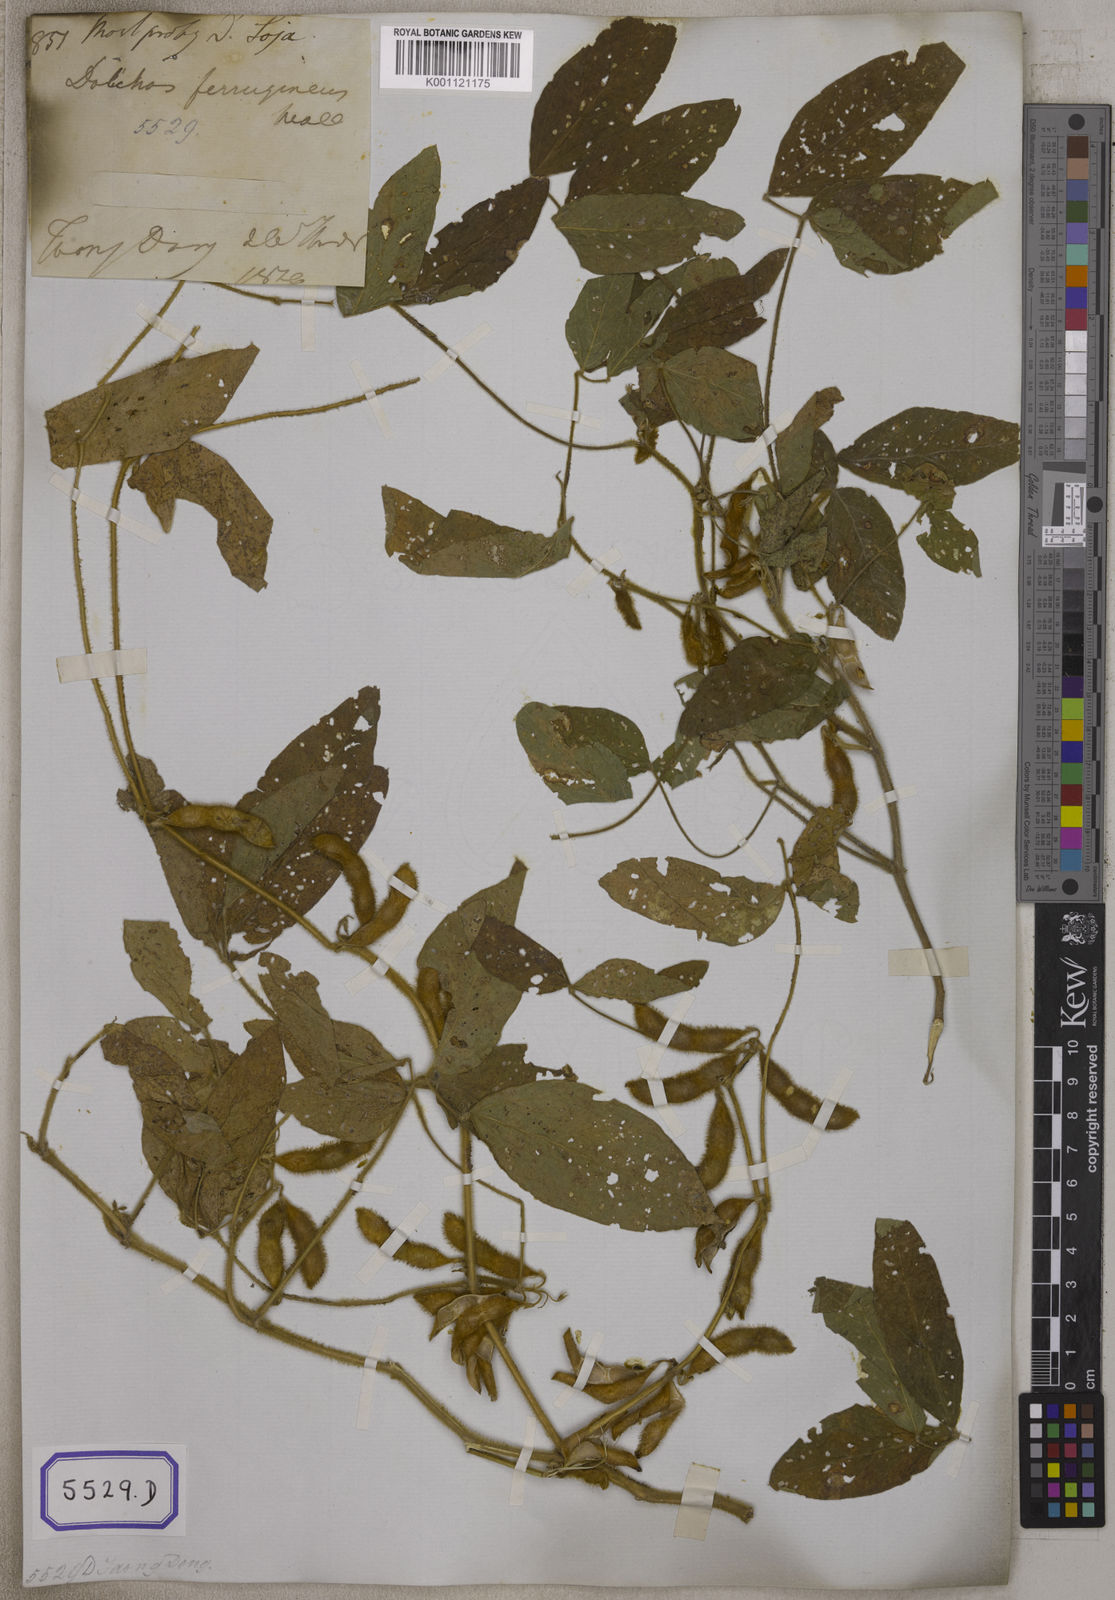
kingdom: Plantae
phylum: Tracheophyta
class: Magnoliopsida
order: Fabales
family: Fabaceae
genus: Glycine
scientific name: Glycine max
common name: Soya-bean
